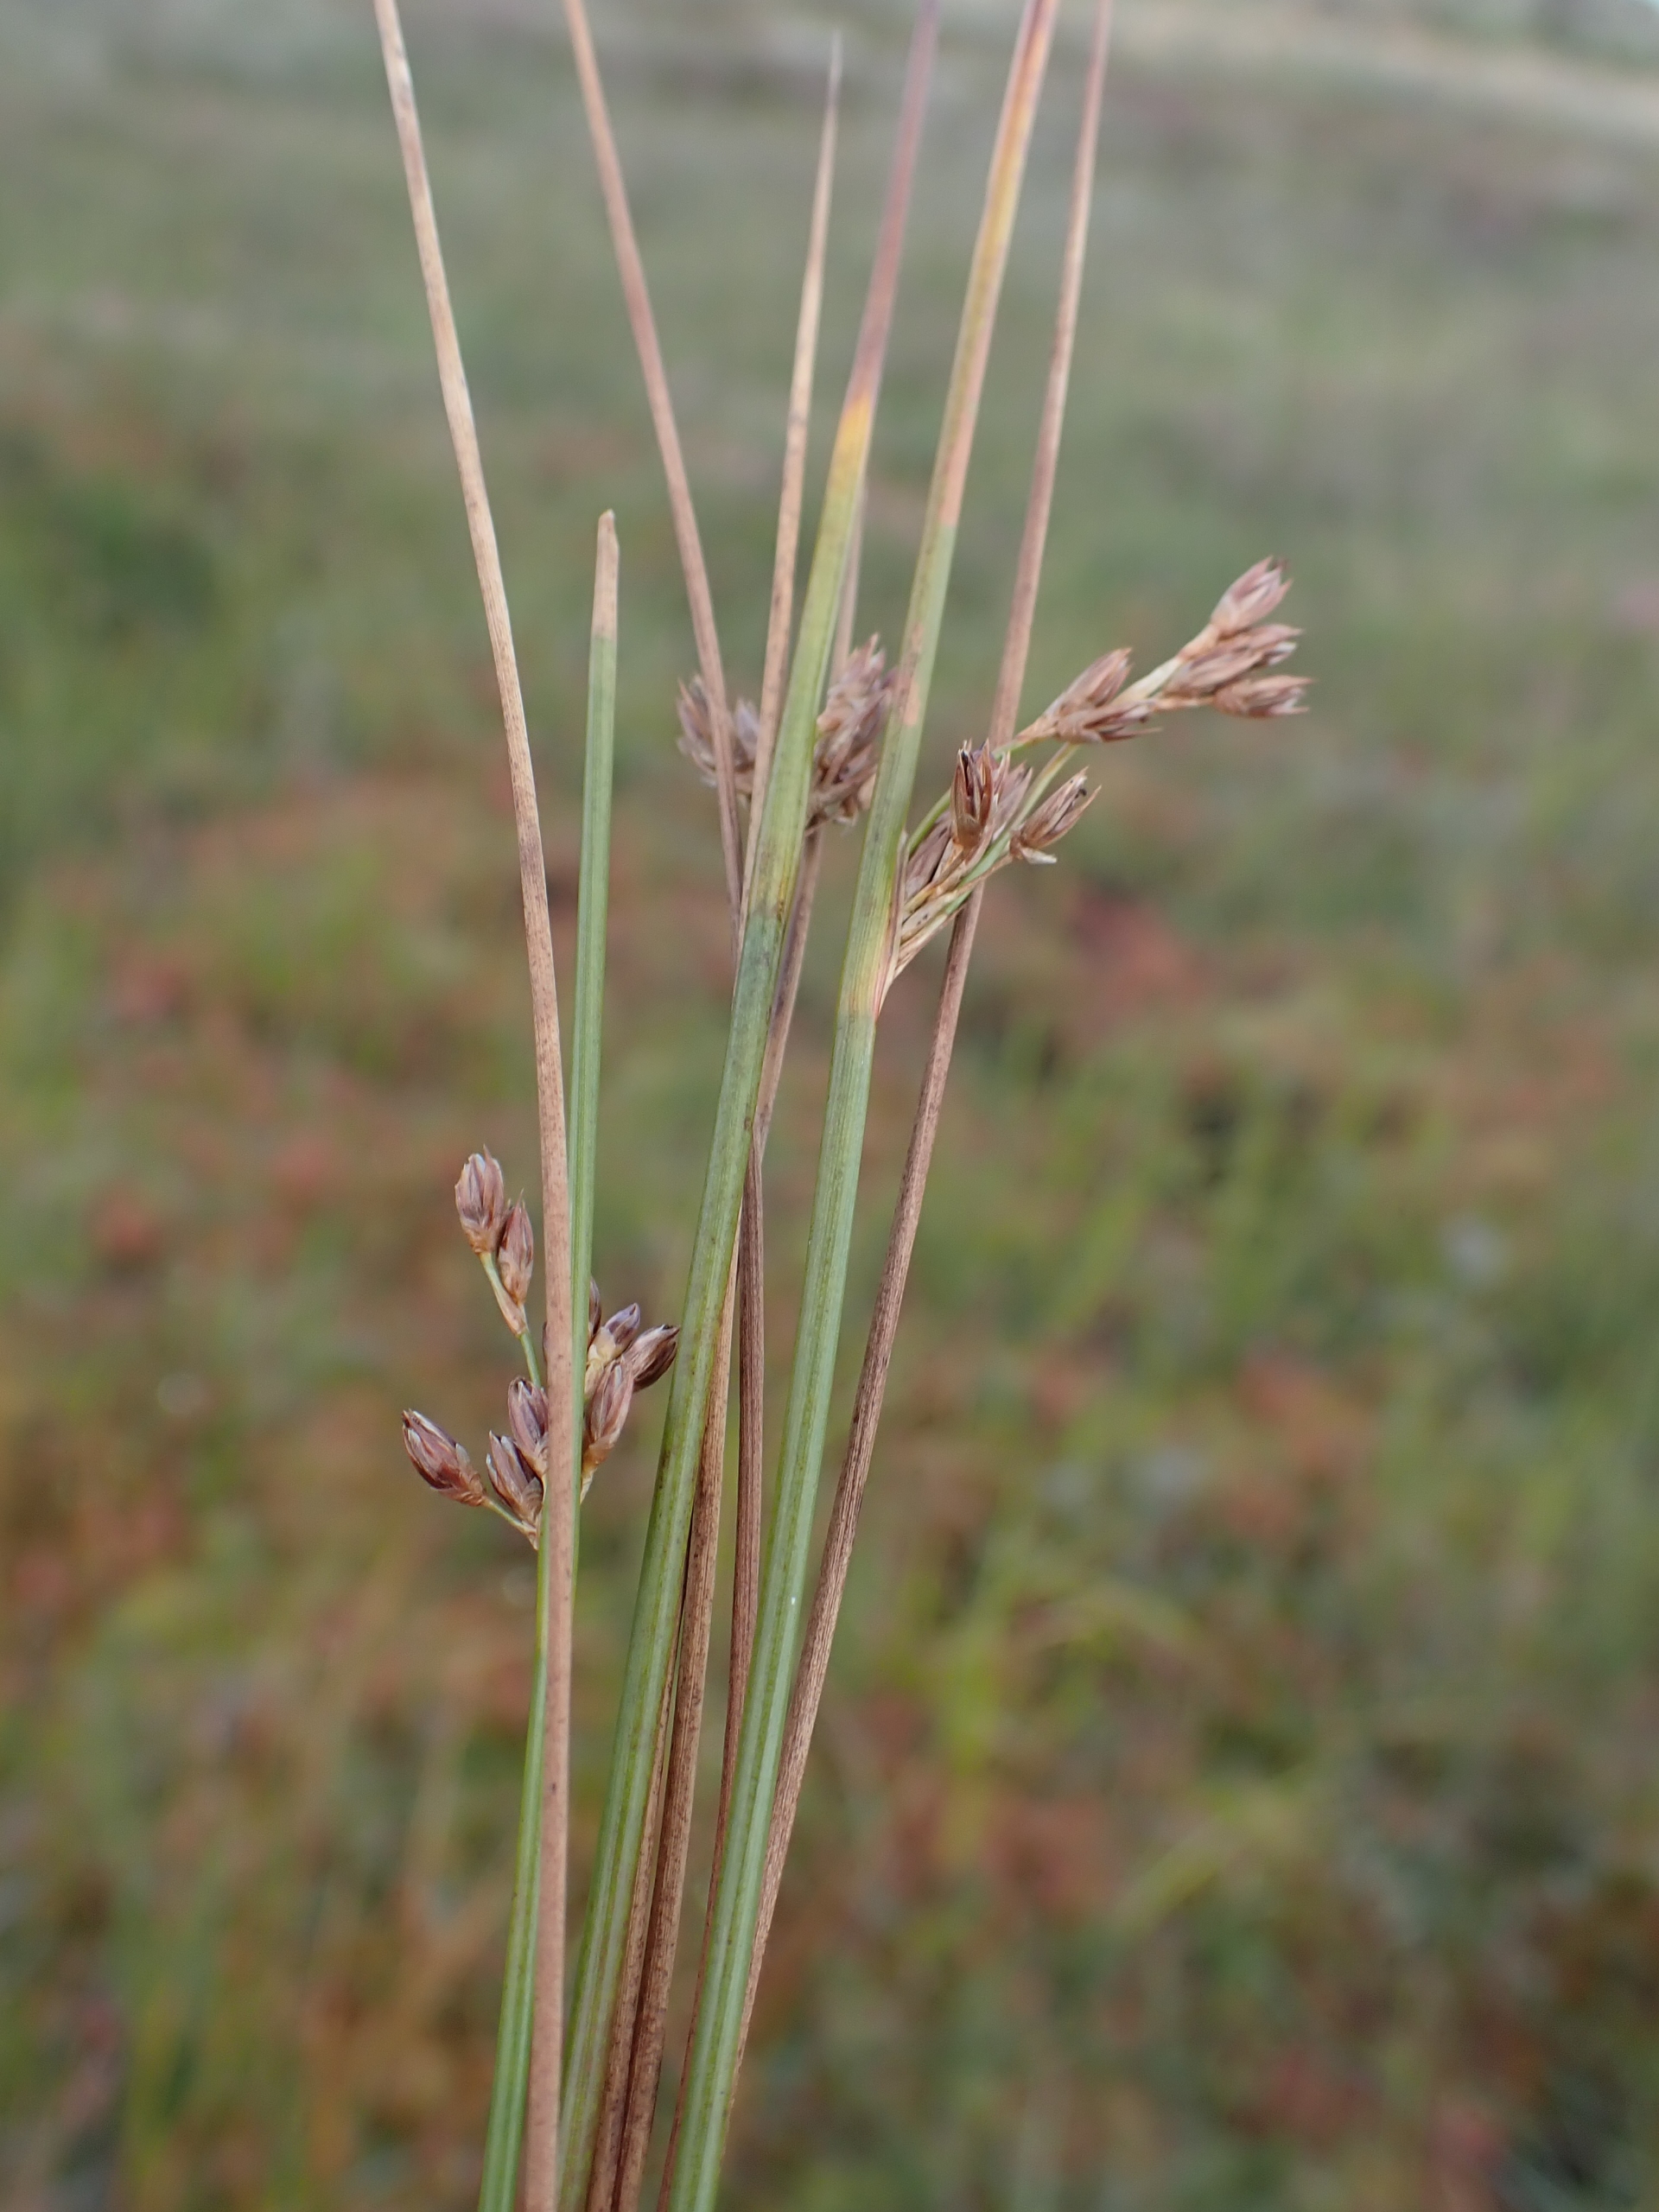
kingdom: Plantae
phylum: Tracheophyta
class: Liliopsida
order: Poales
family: Juncaceae
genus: Juncus
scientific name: Juncus balticus
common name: Klit-siv
